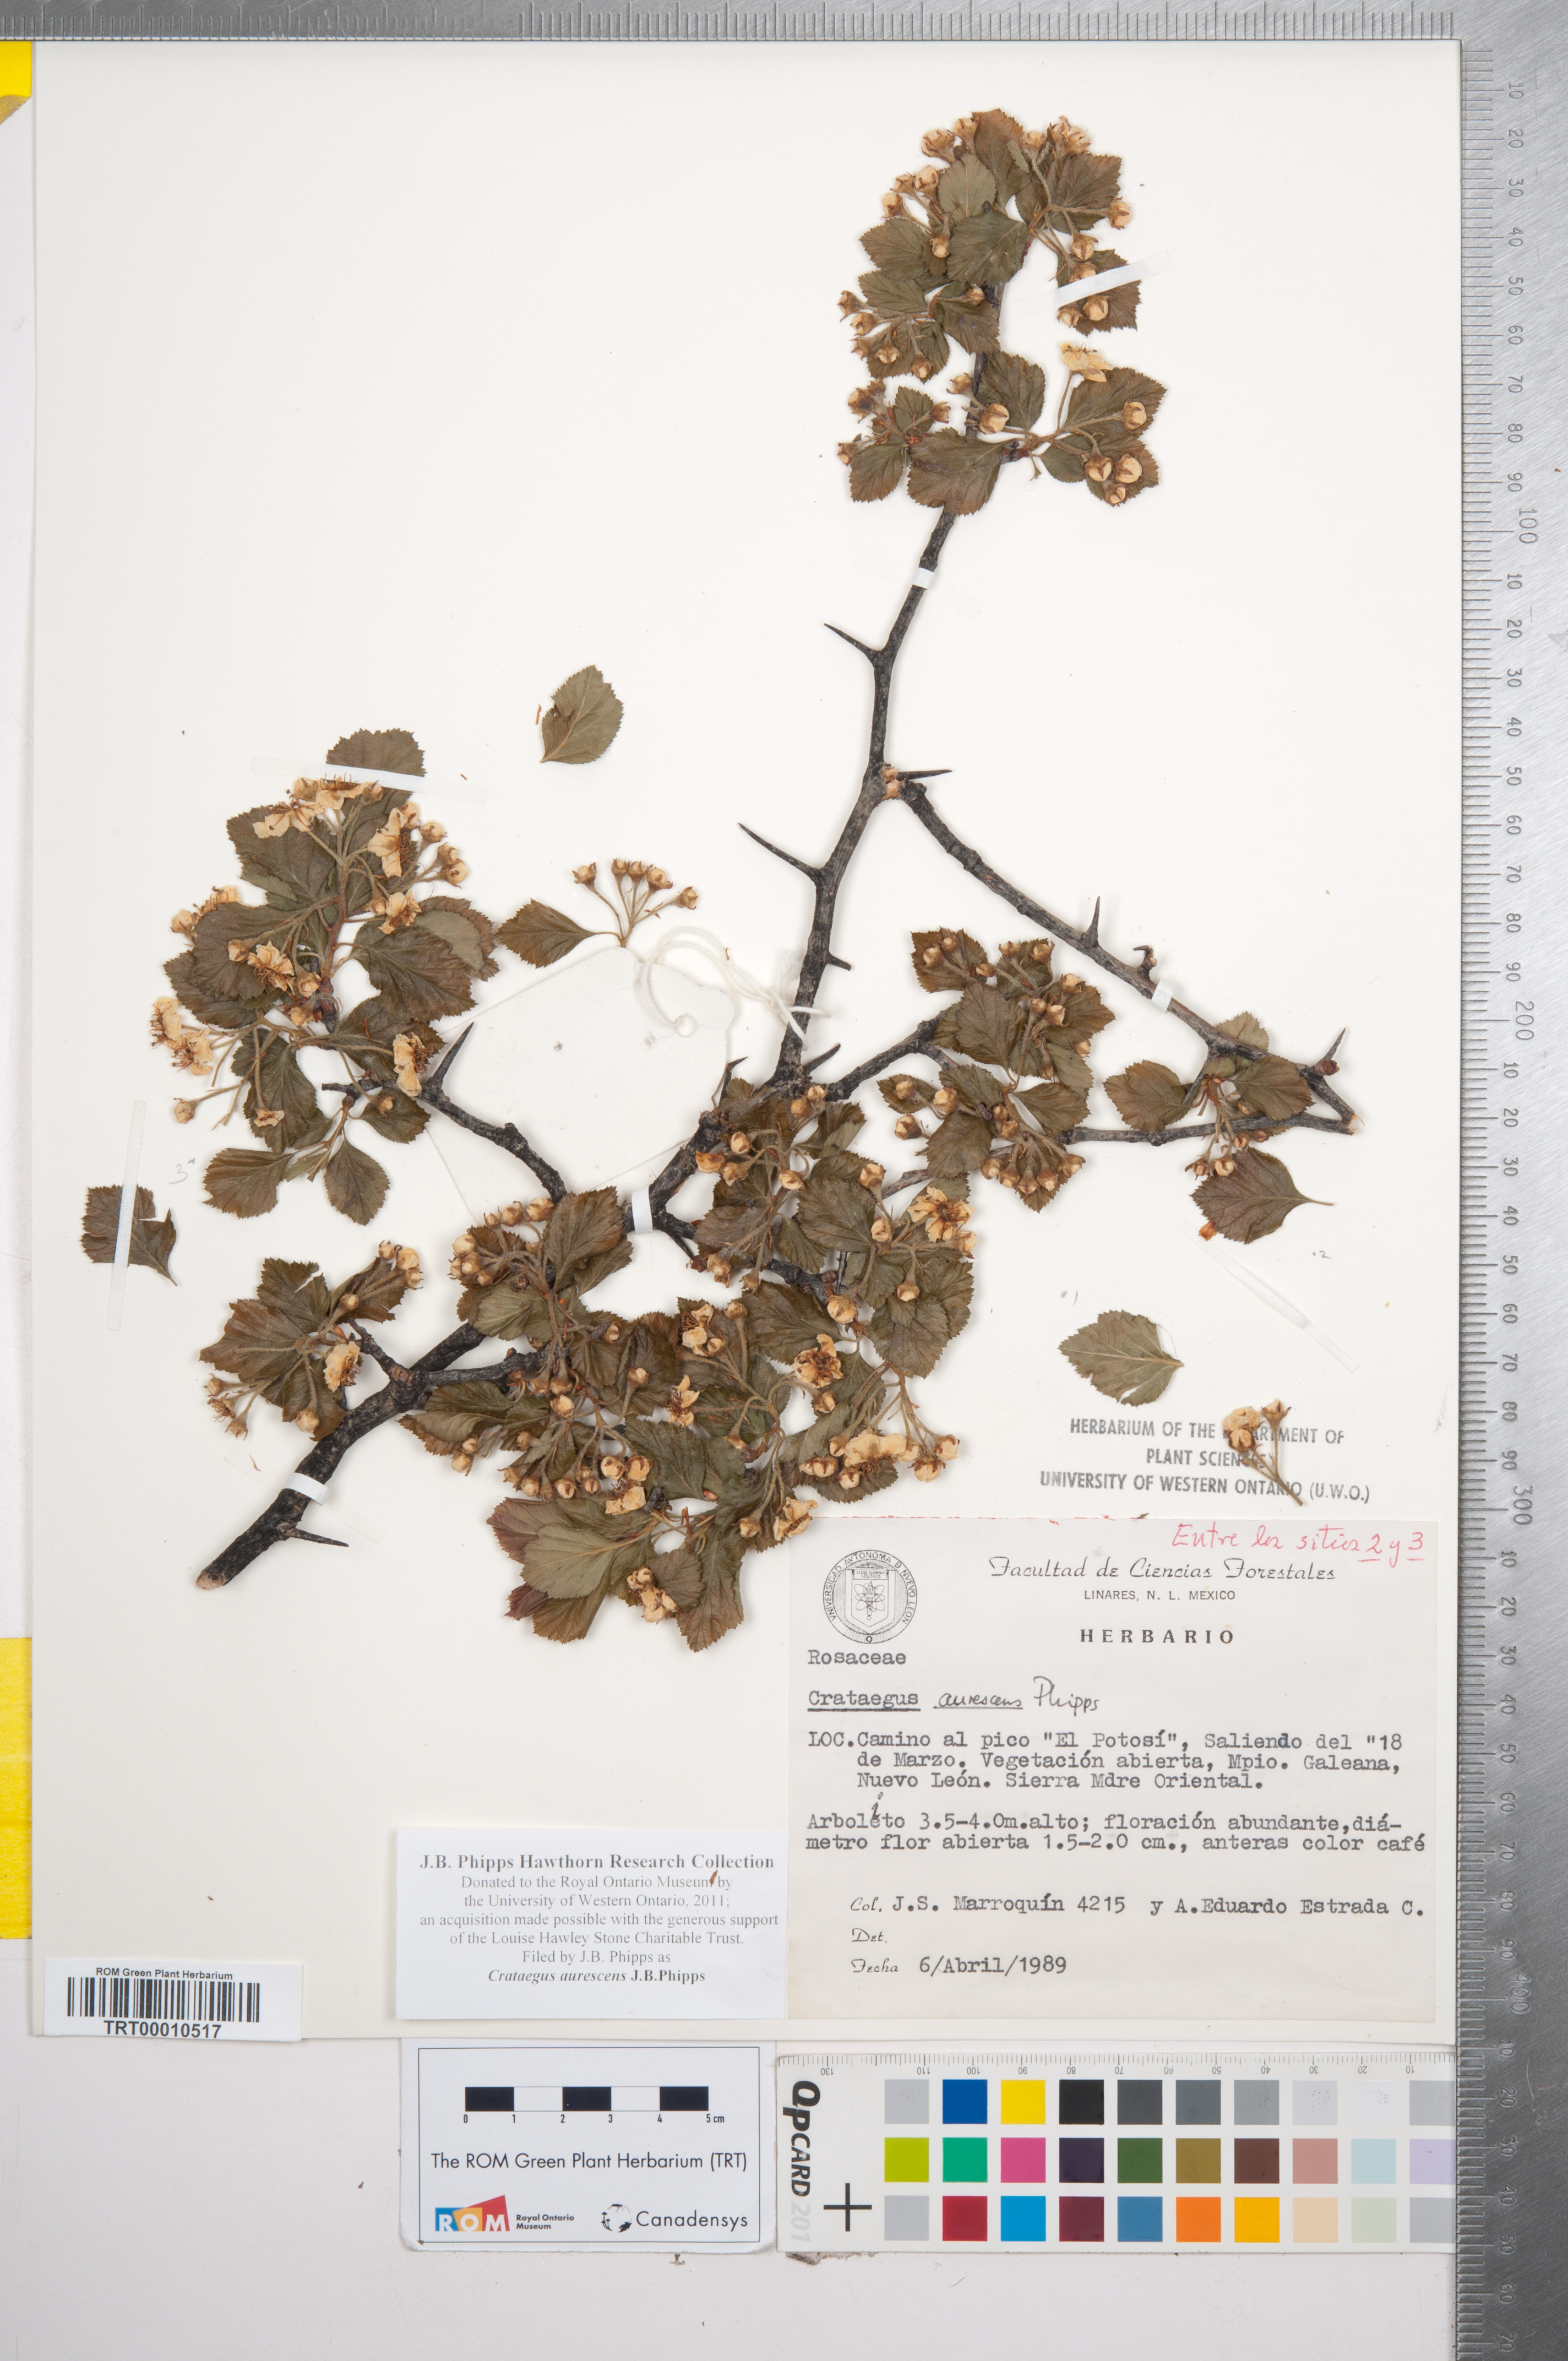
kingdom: Plantae
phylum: Tracheophyta
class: Magnoliopsida
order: Rosales
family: Rosaceae
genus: Crataegus
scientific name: Crataegus aurescens
